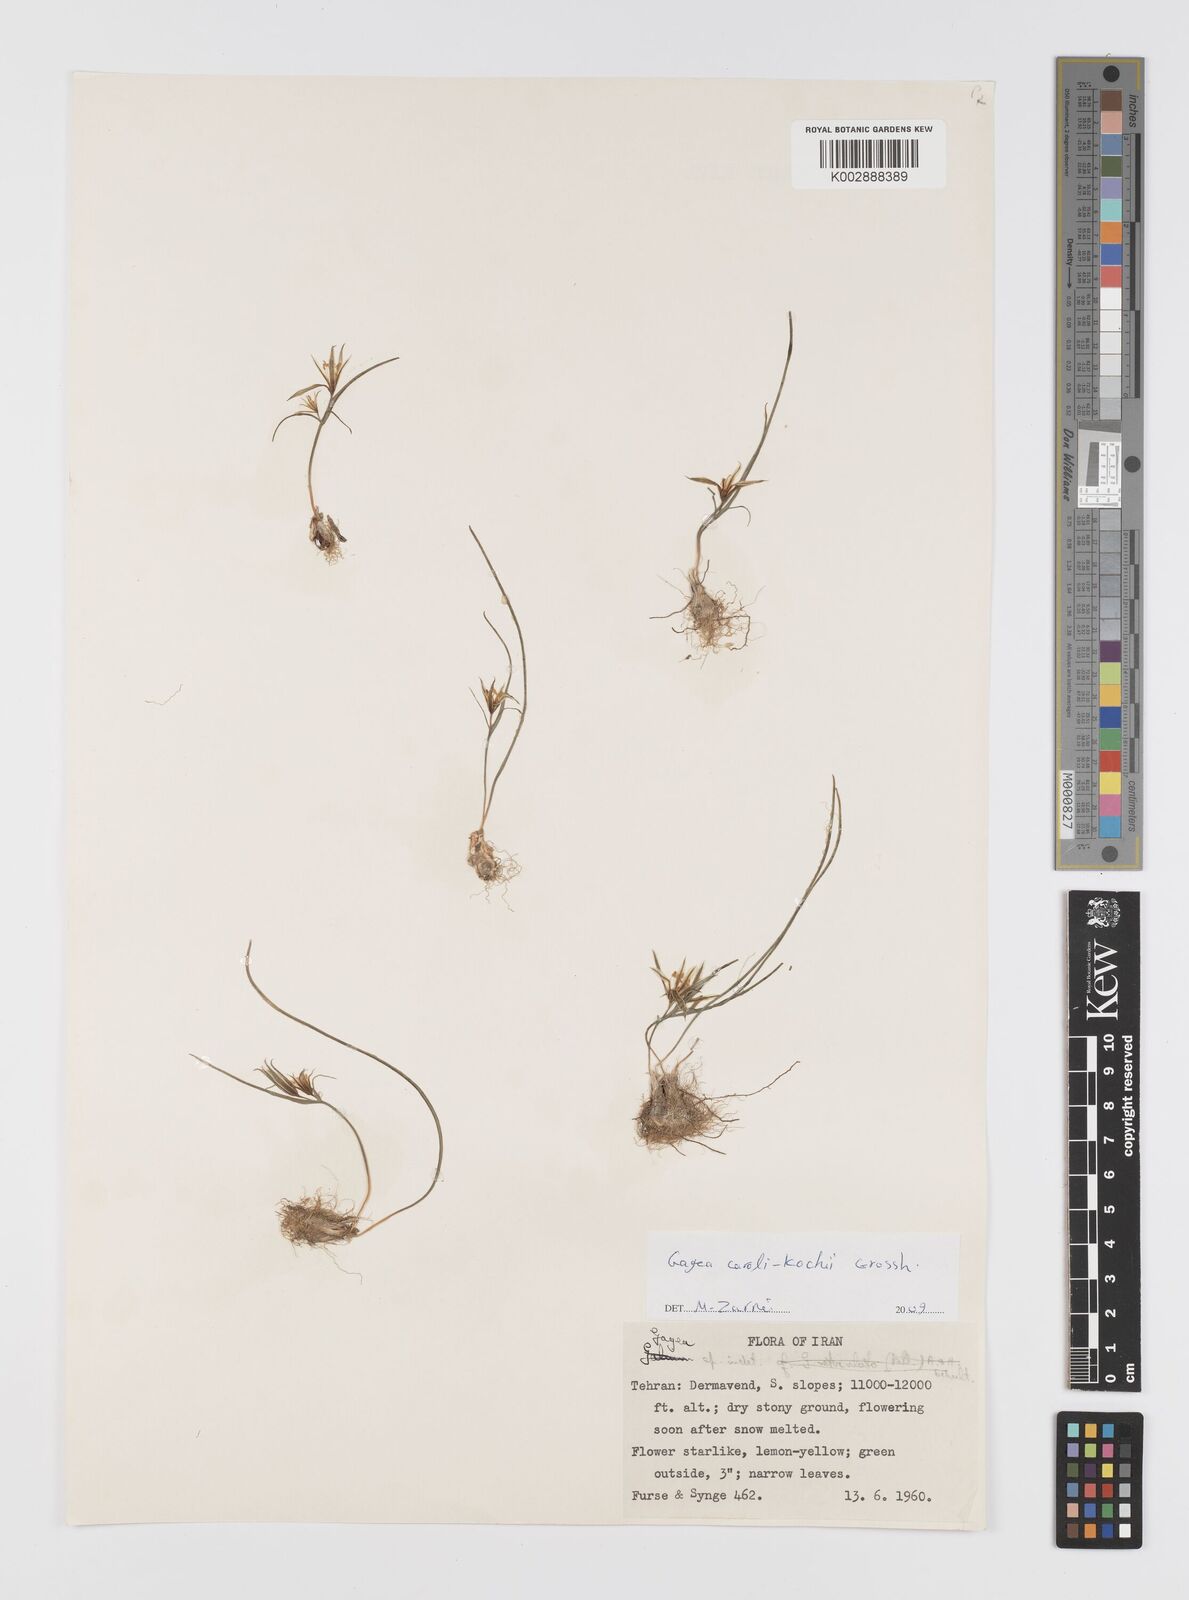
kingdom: Plantae
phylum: Tracheophyta
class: Liliopsida
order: Liliales
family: Liliaceae
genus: Gagea
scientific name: Gagea caroli-kochii
